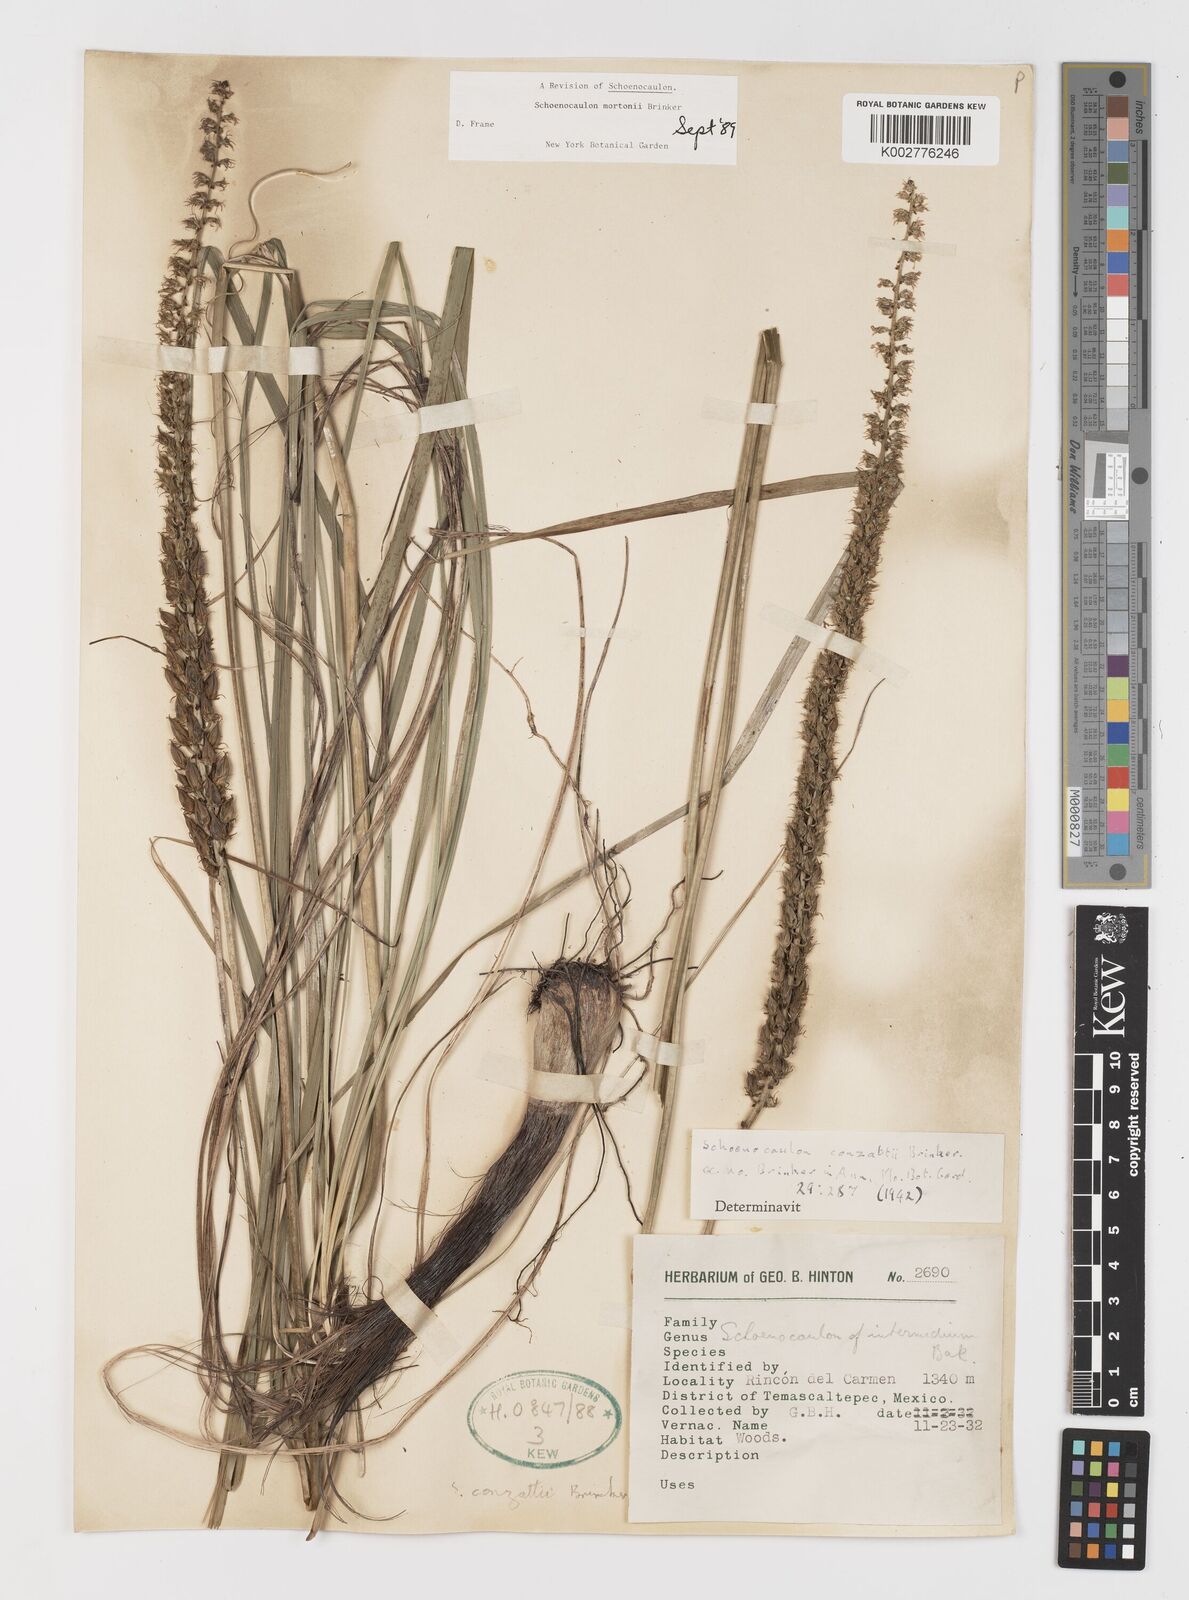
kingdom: Plantae
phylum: Tracheophyta
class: Liliopsida
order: Liliales
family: Melanthiaceae
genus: Schoenocaulon
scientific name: Schoenocaulon mortonii
